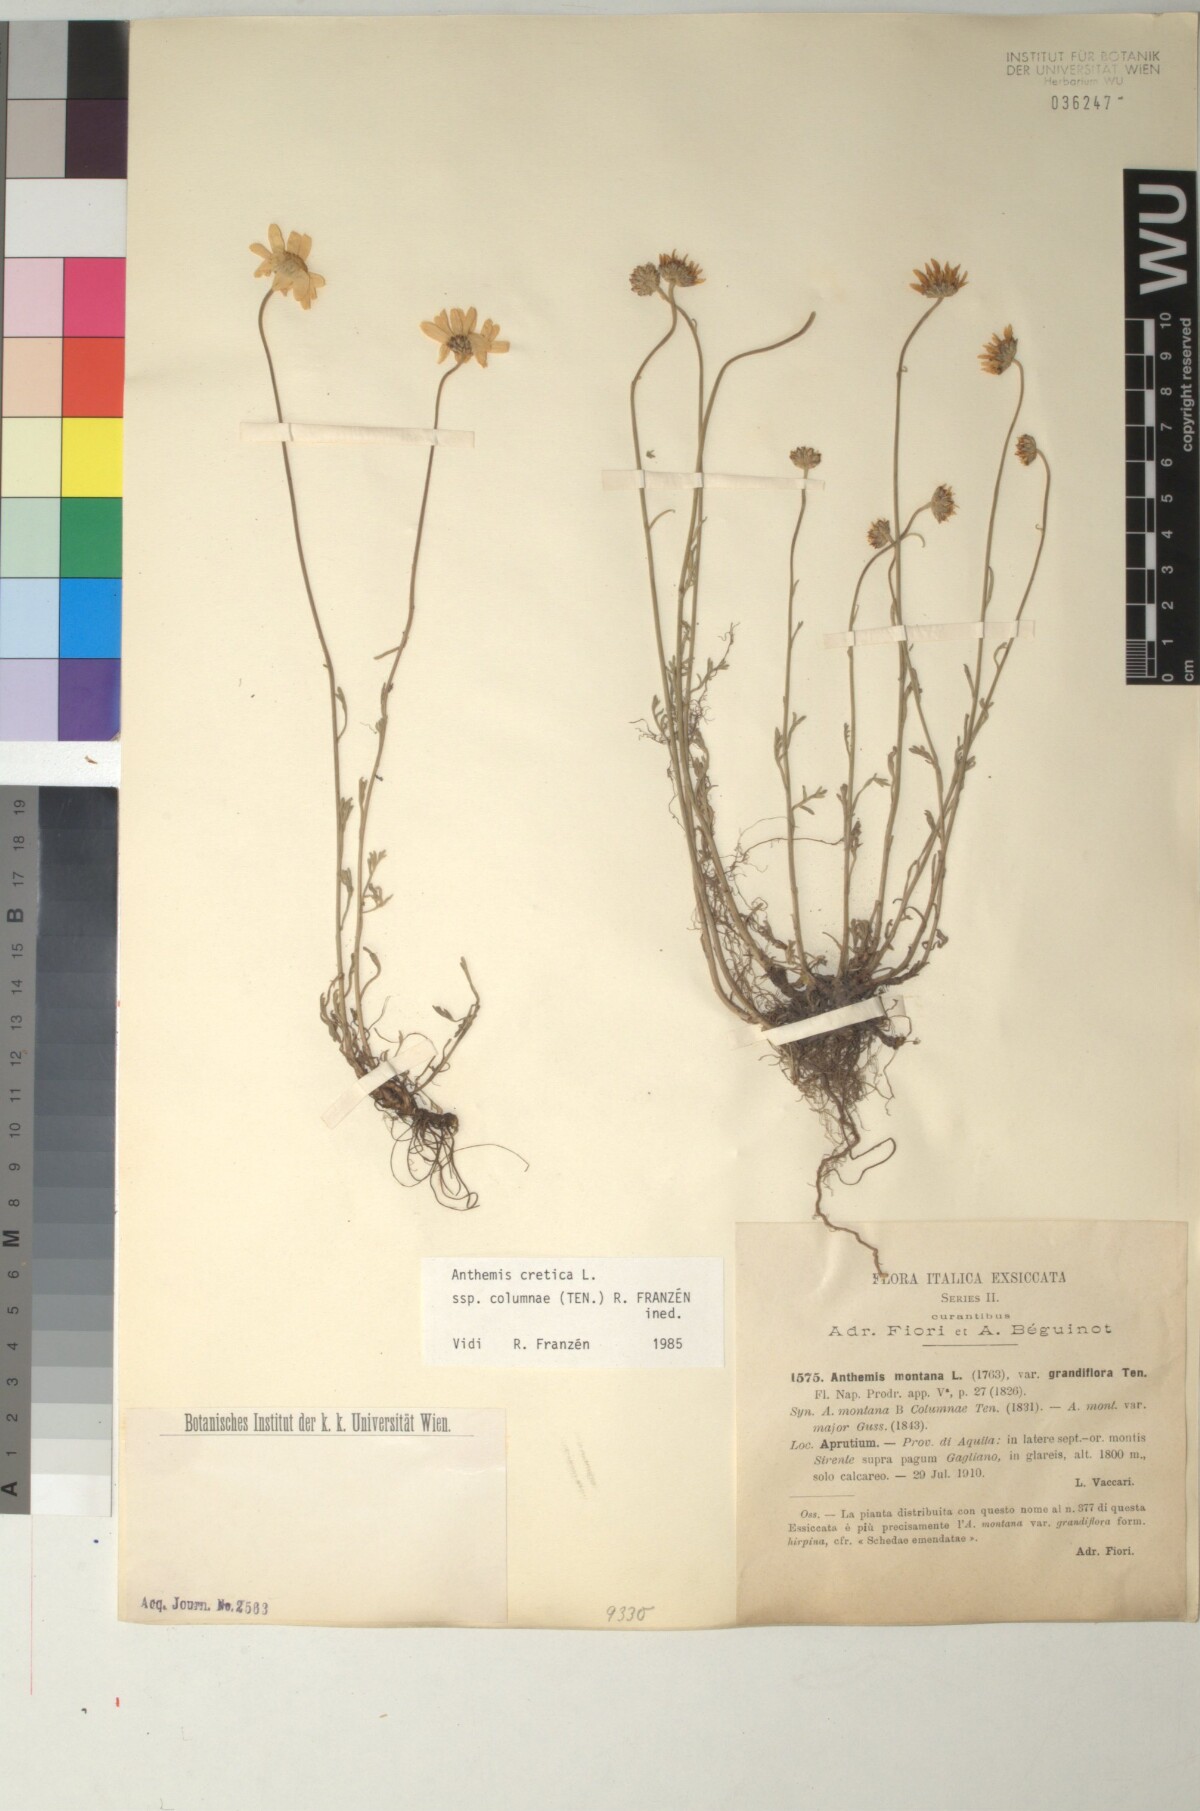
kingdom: Plantae
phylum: Tracheophyta
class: Magnoliopsida
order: Asterales
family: Asteraceae
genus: Anthemis
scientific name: Anthemis cretica
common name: Mountain dog-daisy
